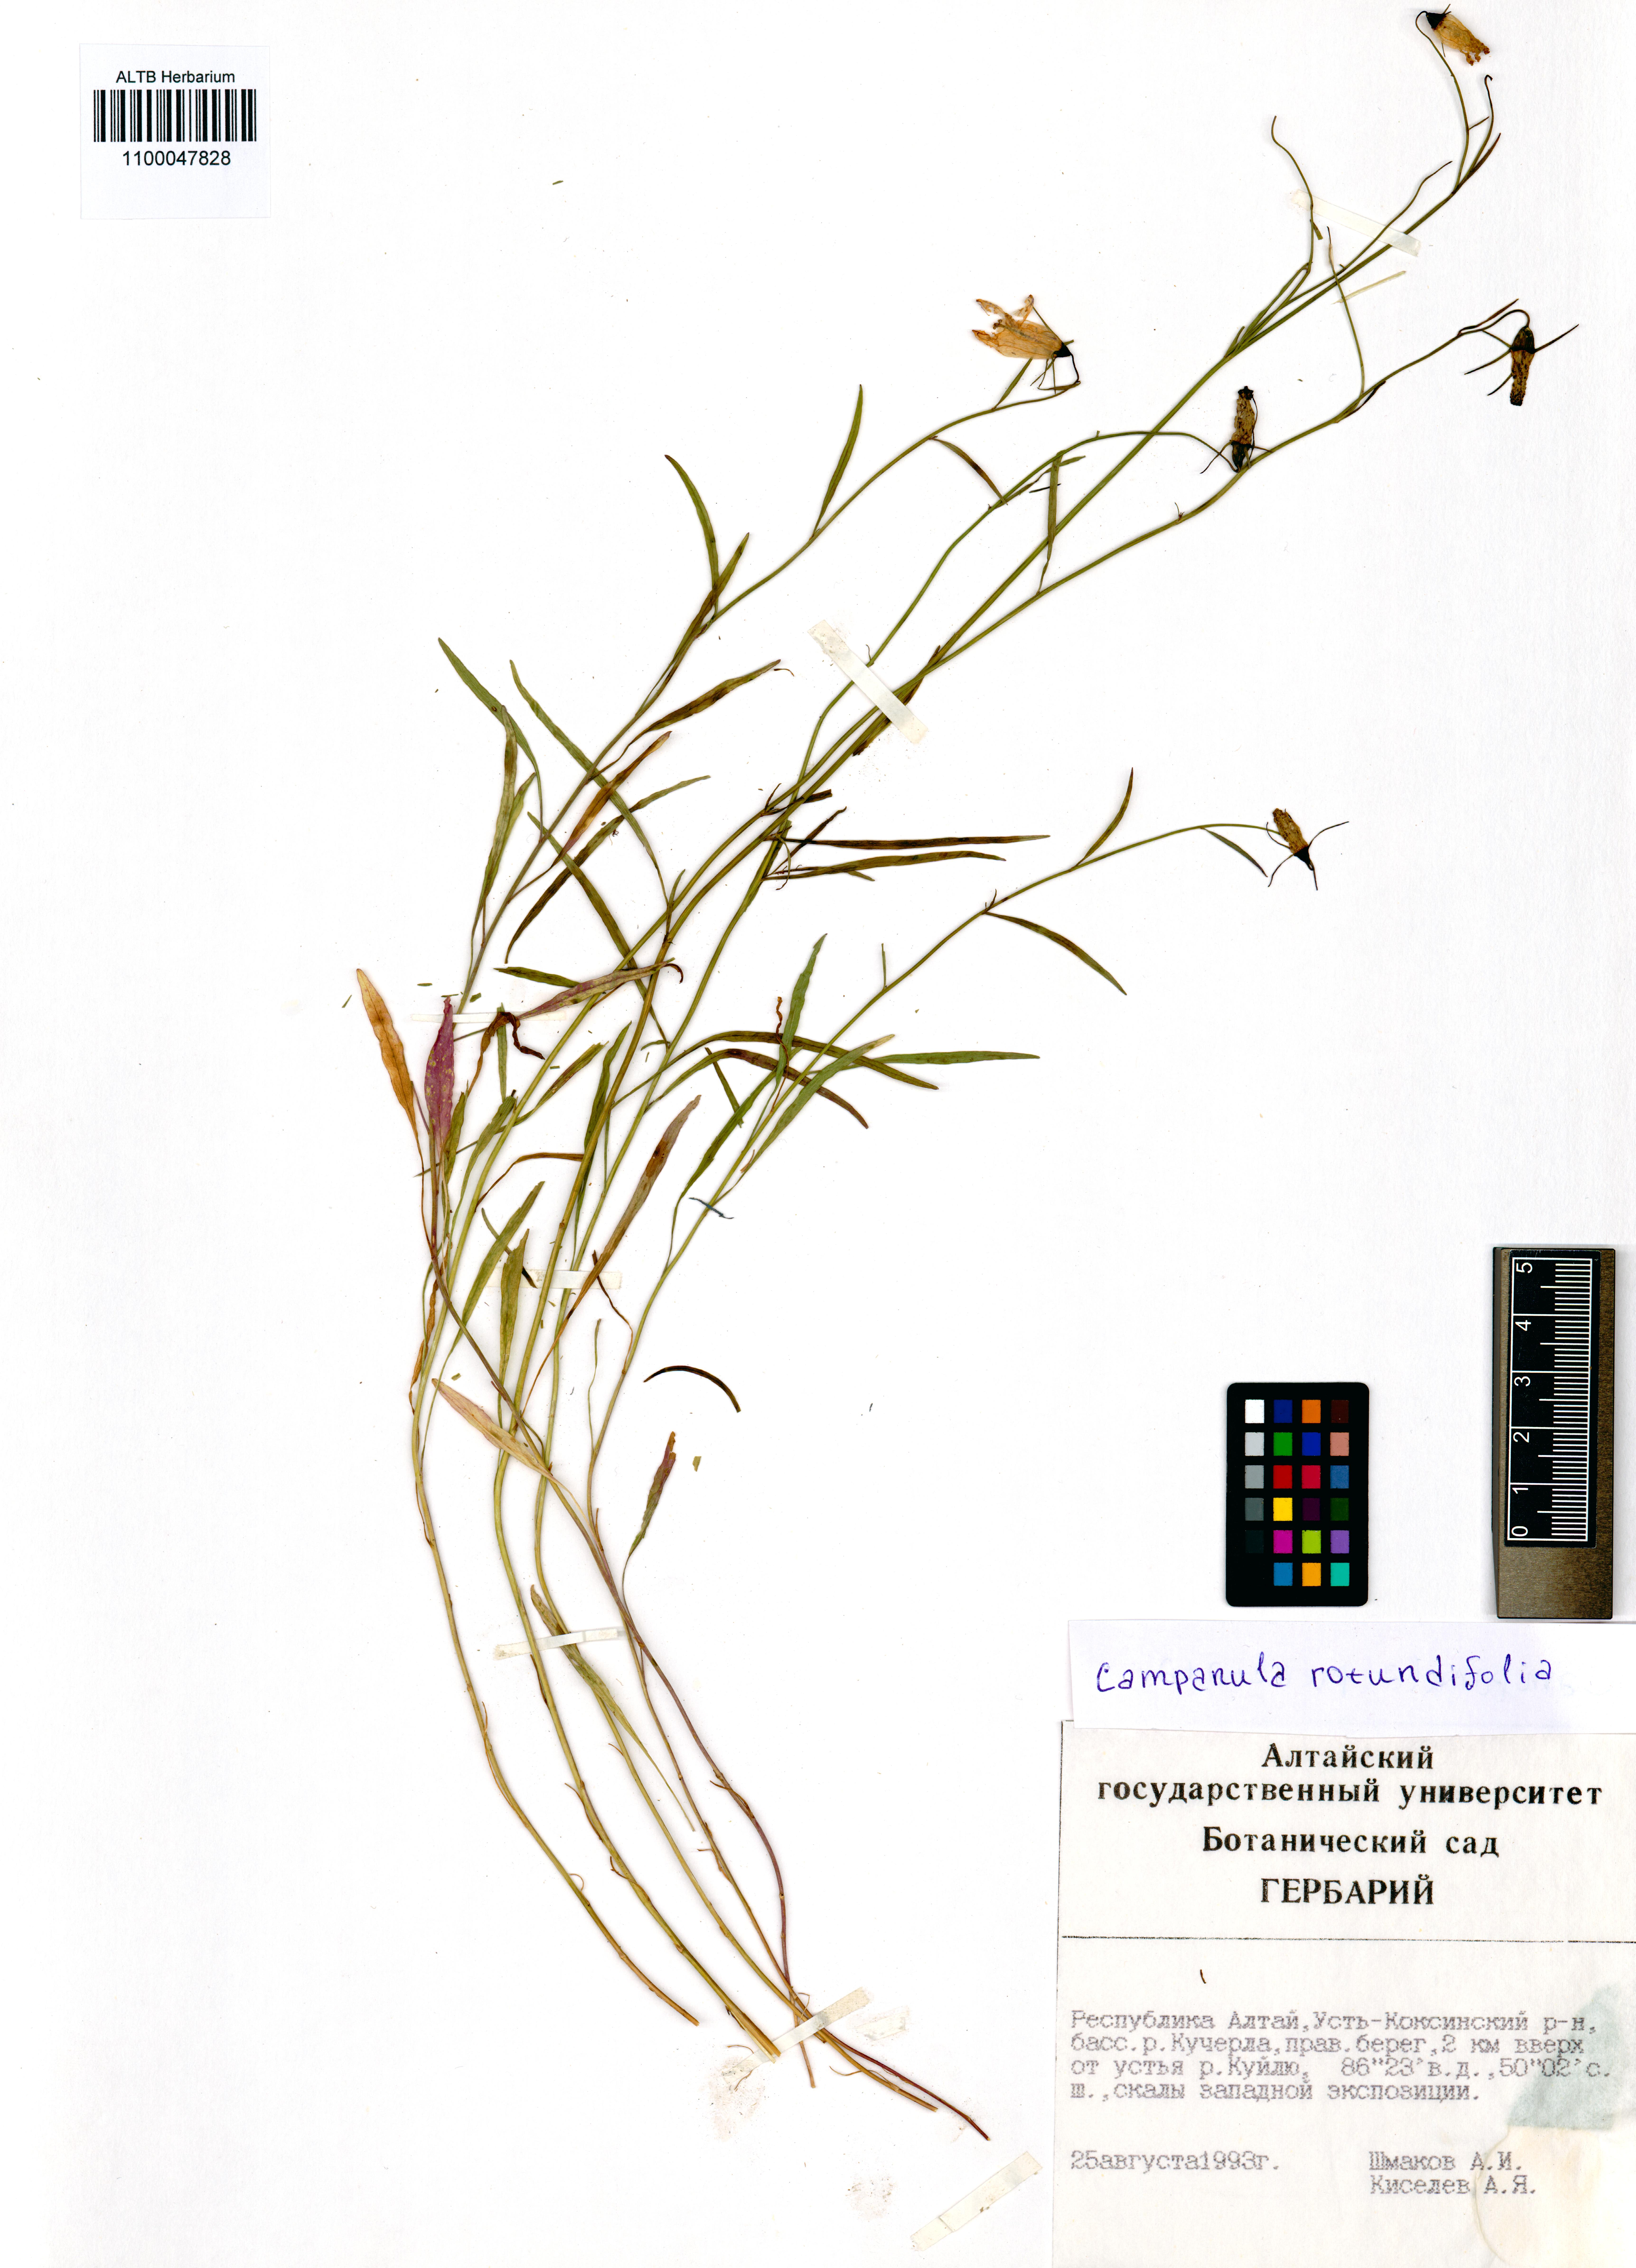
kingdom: Plantae
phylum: Tracheophyta
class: Magnoliopsida
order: Asterales
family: Campanulaceae
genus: Campanula
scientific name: Campanula rotundifolia
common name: Harebell
